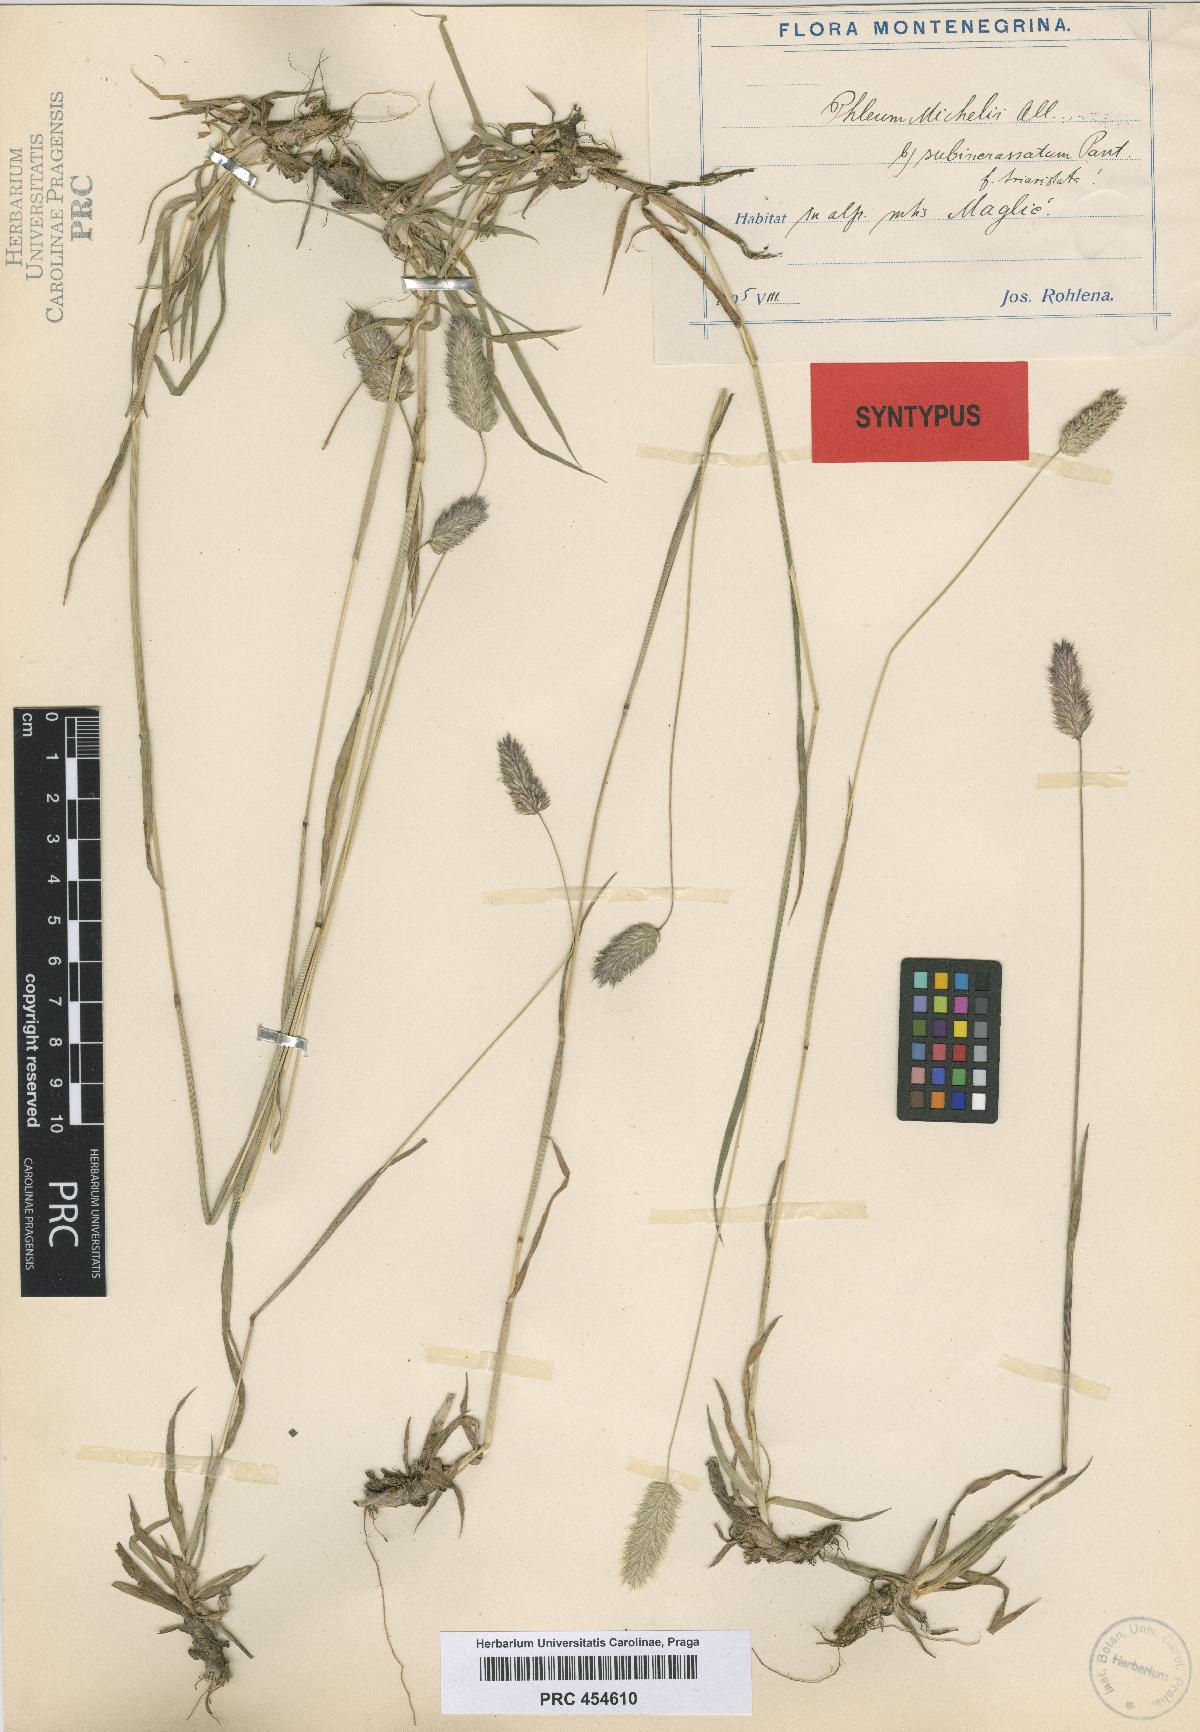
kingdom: Plantae
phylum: Tracheophyta
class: Liliopsida
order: Poales
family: Poaceae
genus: Phleum
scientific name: Phleum hirsutum
